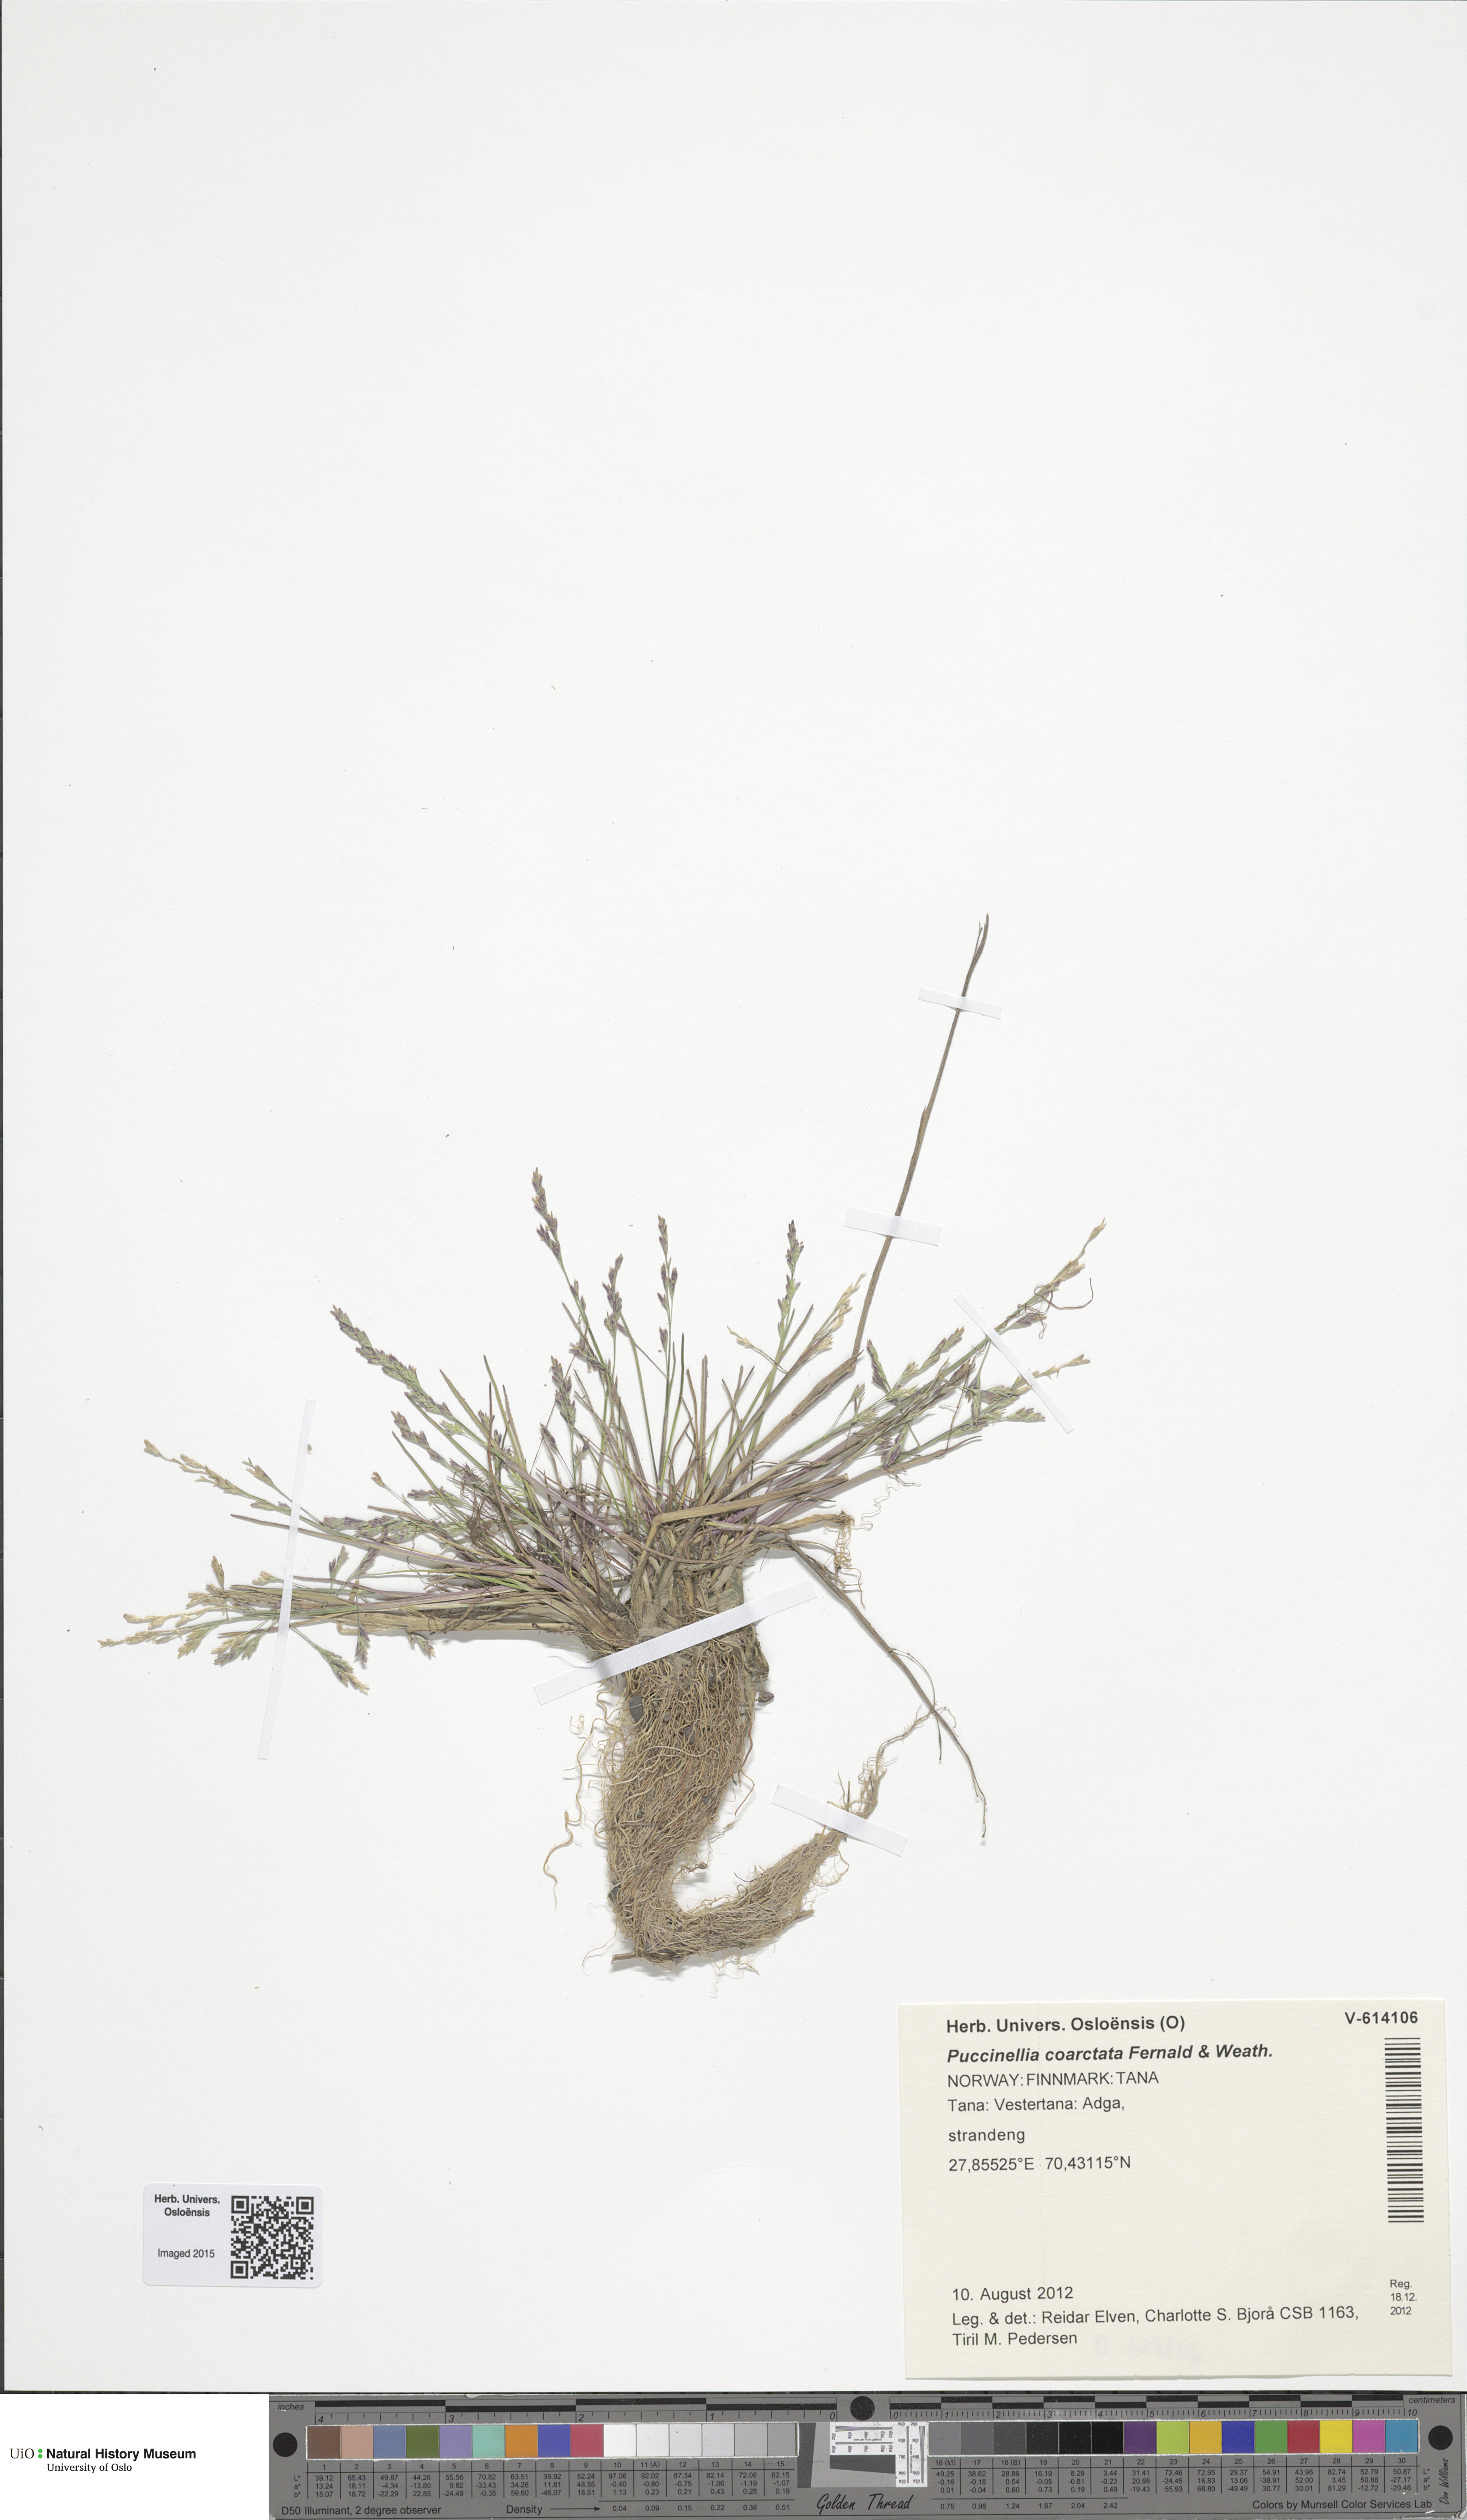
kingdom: Plantae
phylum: Tracheophyta
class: Liliopsida
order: Poales
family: Poaceae
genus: Puccinellia
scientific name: Puccinellia distans
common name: Weeping alkaligrass
